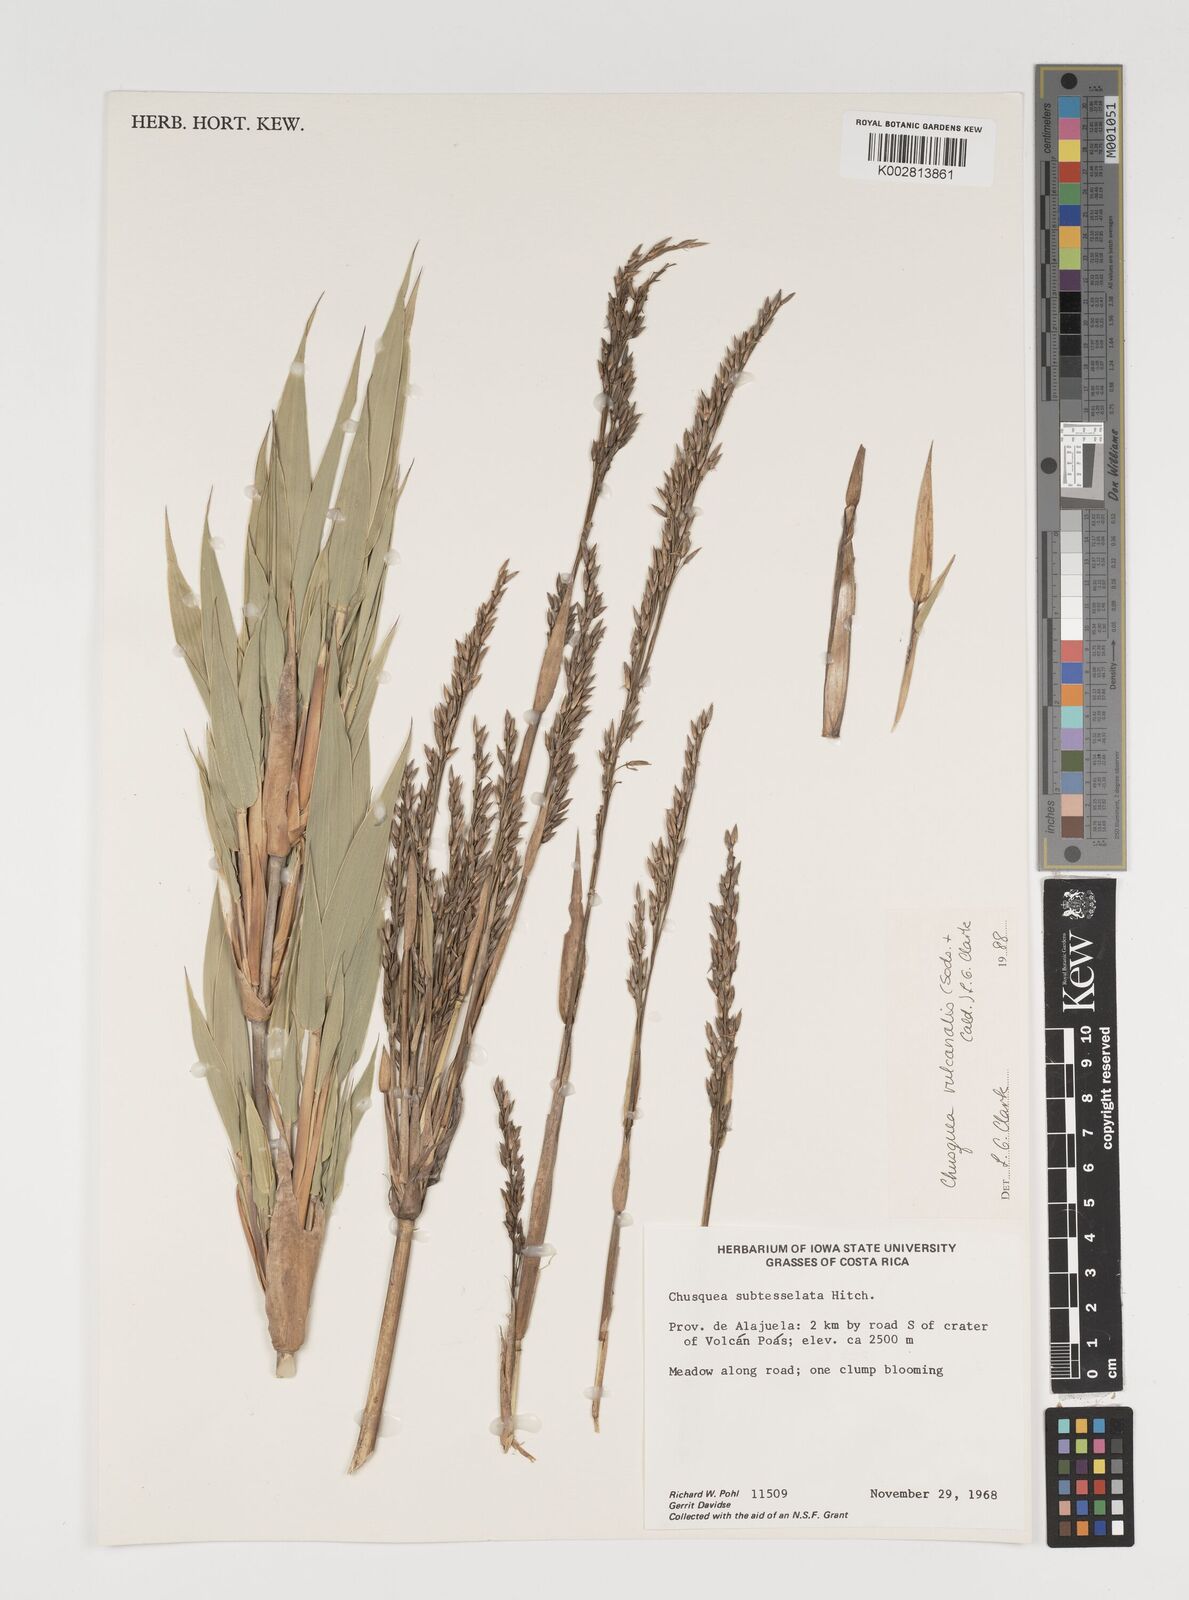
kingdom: Plantae
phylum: Tracheophyta
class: Liliopsida
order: Poales
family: Poaceae
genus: Chusquea
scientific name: Chusquea vulcanalis
